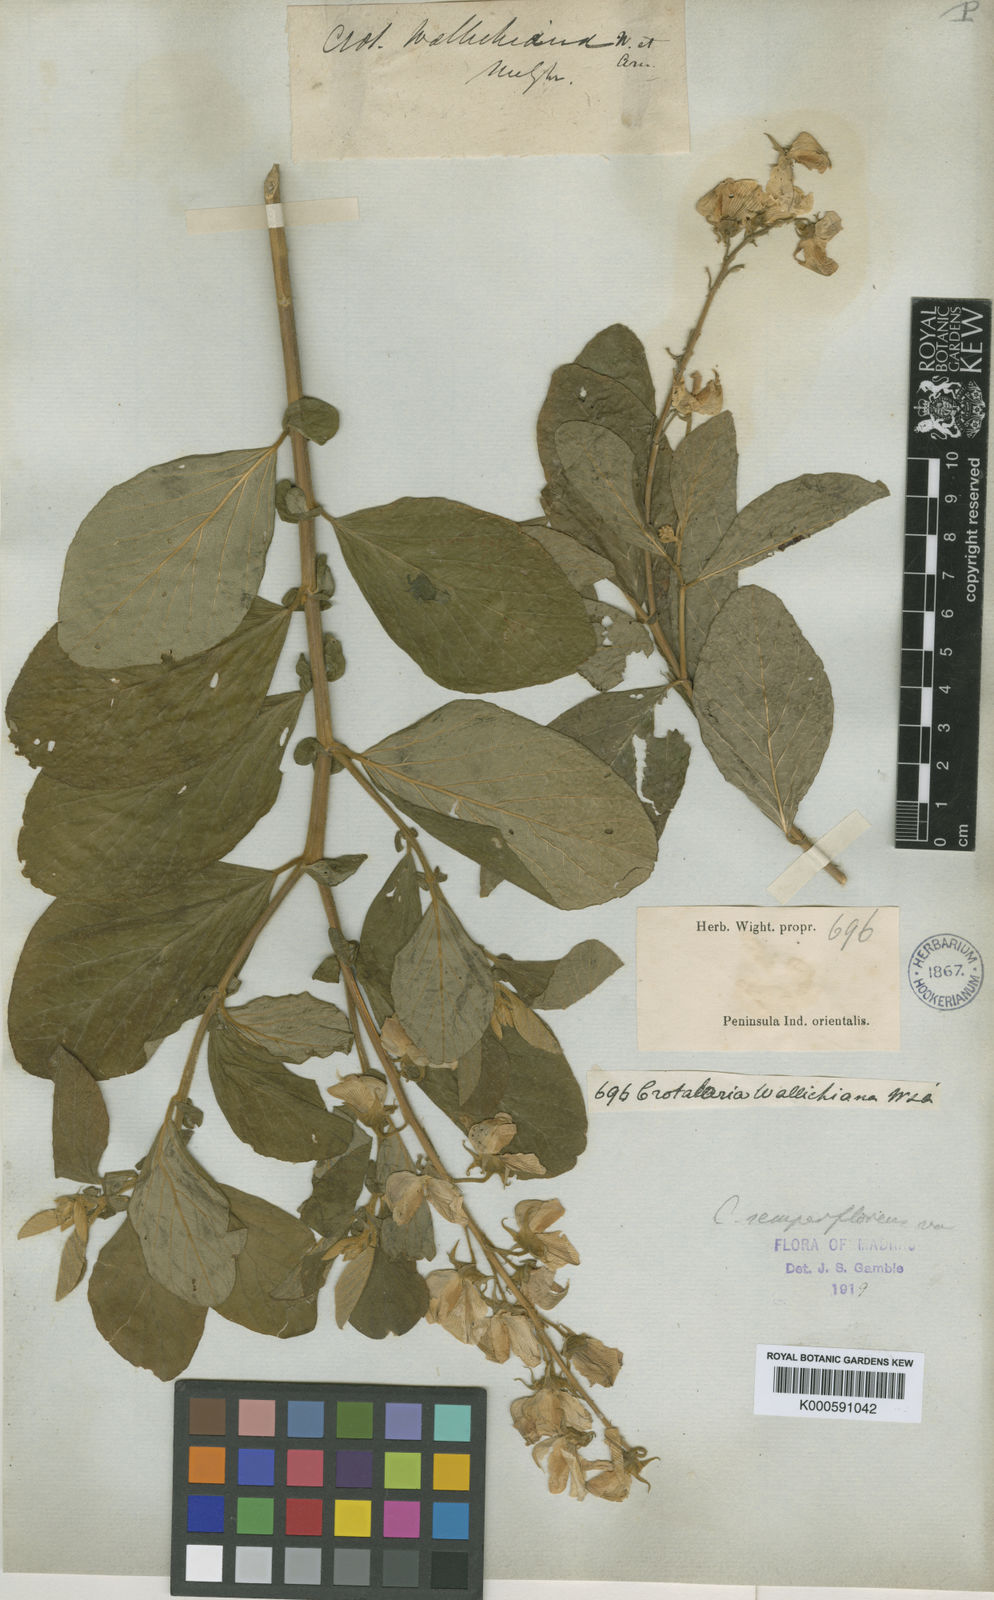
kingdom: Plantae
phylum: Tracheophyta
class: Magnoliopsida
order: Fabales
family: Fabaceae
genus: Crotalaria
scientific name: Crotalaria semperflorens
